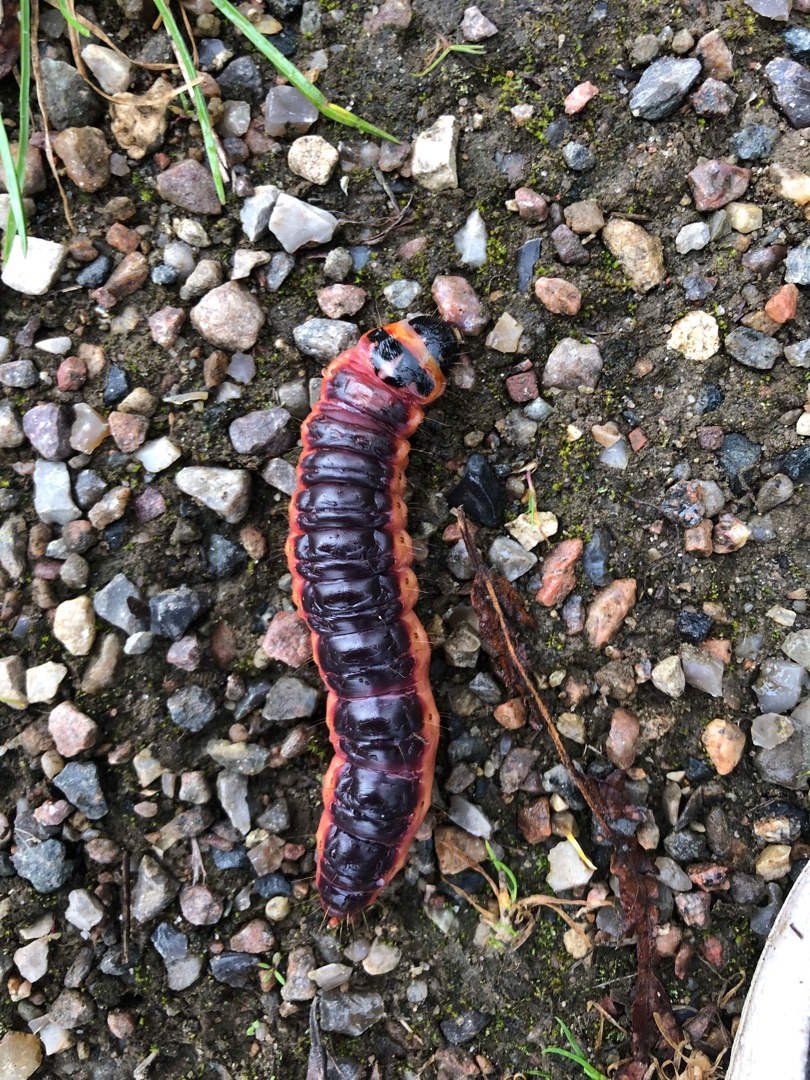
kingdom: Animalia
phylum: Arthropoda
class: Insecta
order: Lepidoptera
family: Cossidae
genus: Cossus
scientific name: Cossus cossus
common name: Pileborer
